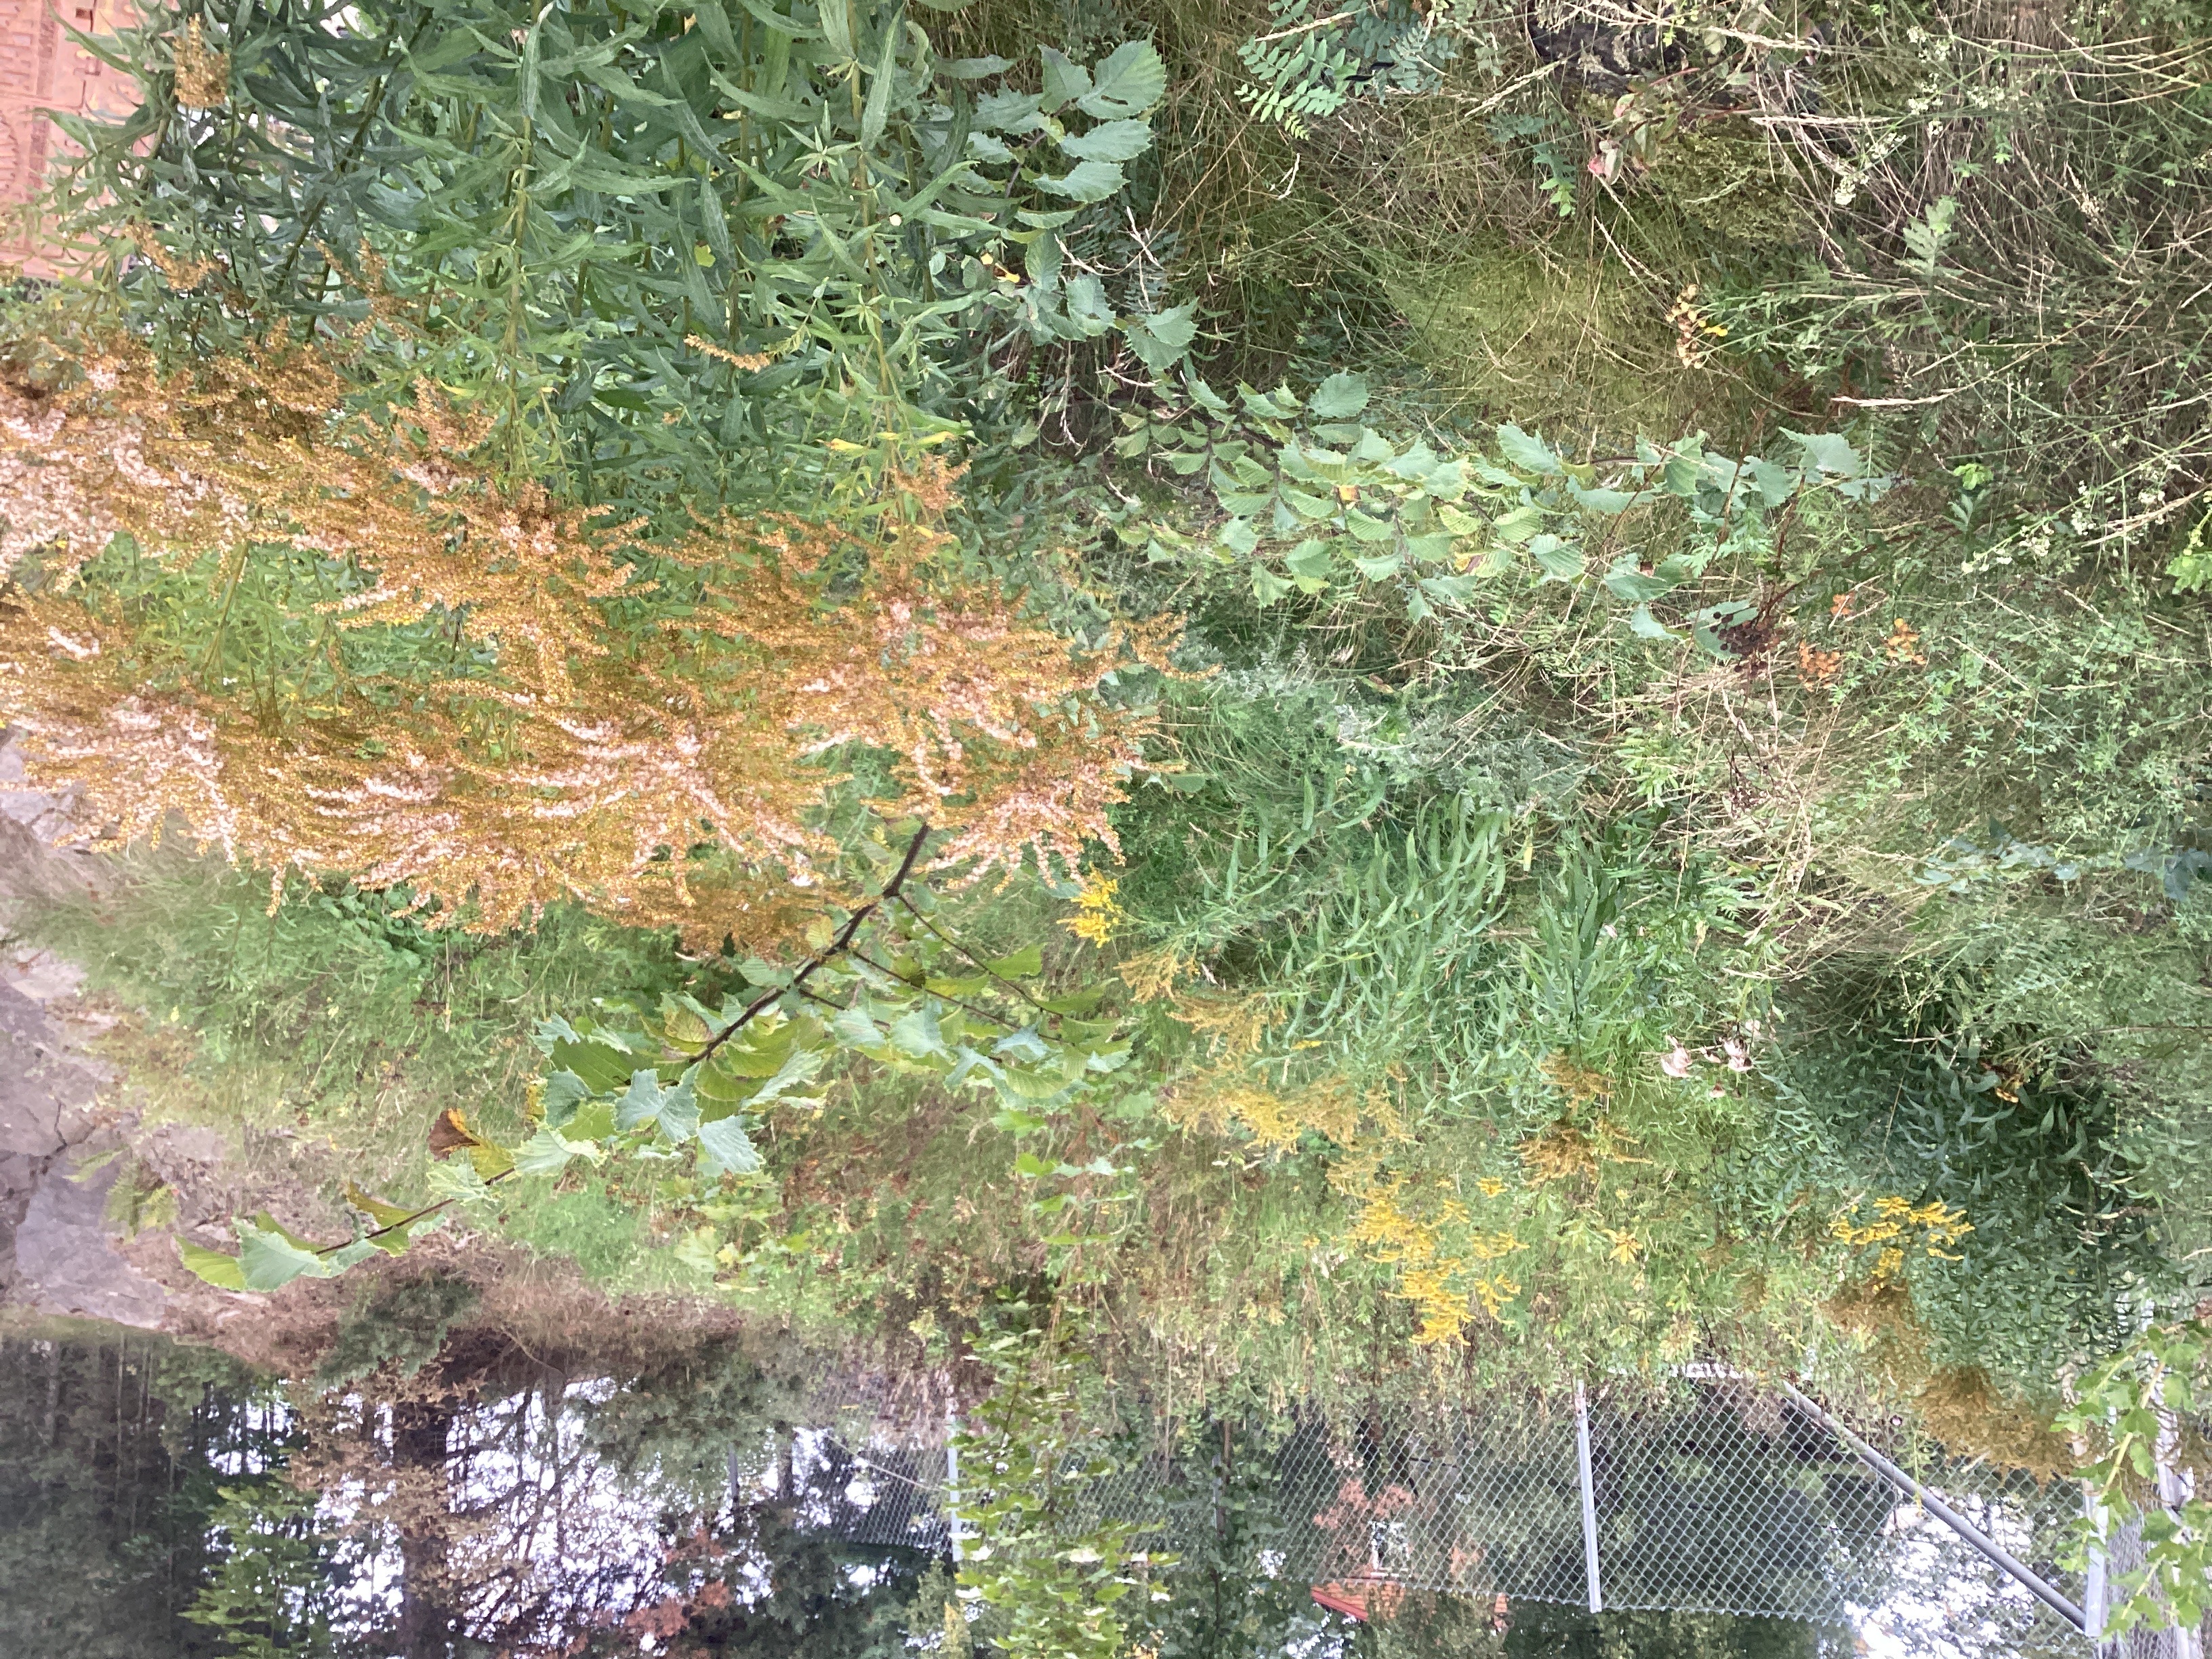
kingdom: Plantae
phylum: Tracheophyta
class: Magnoliopsida
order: Asterales
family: Asteraceae
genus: Solidago
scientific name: Solidago canadensis
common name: kanadagullris
